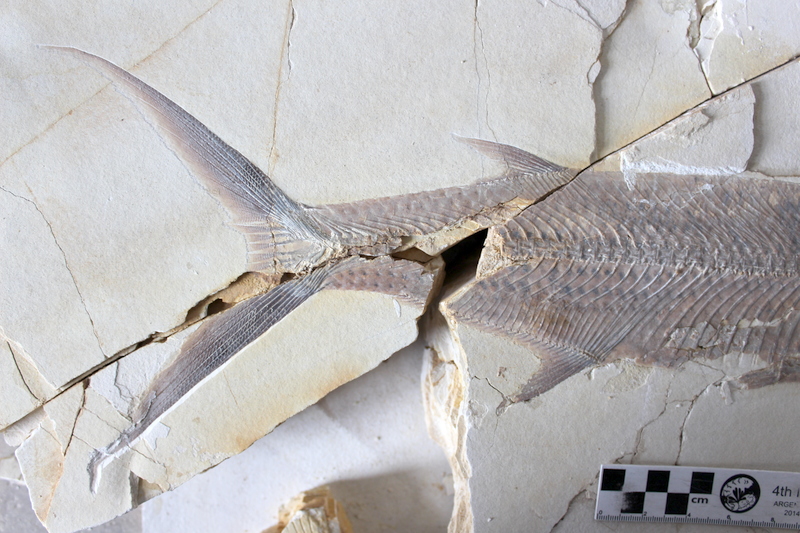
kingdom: Animalia
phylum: Chordata
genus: Thrissops
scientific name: Thrissops formosus
